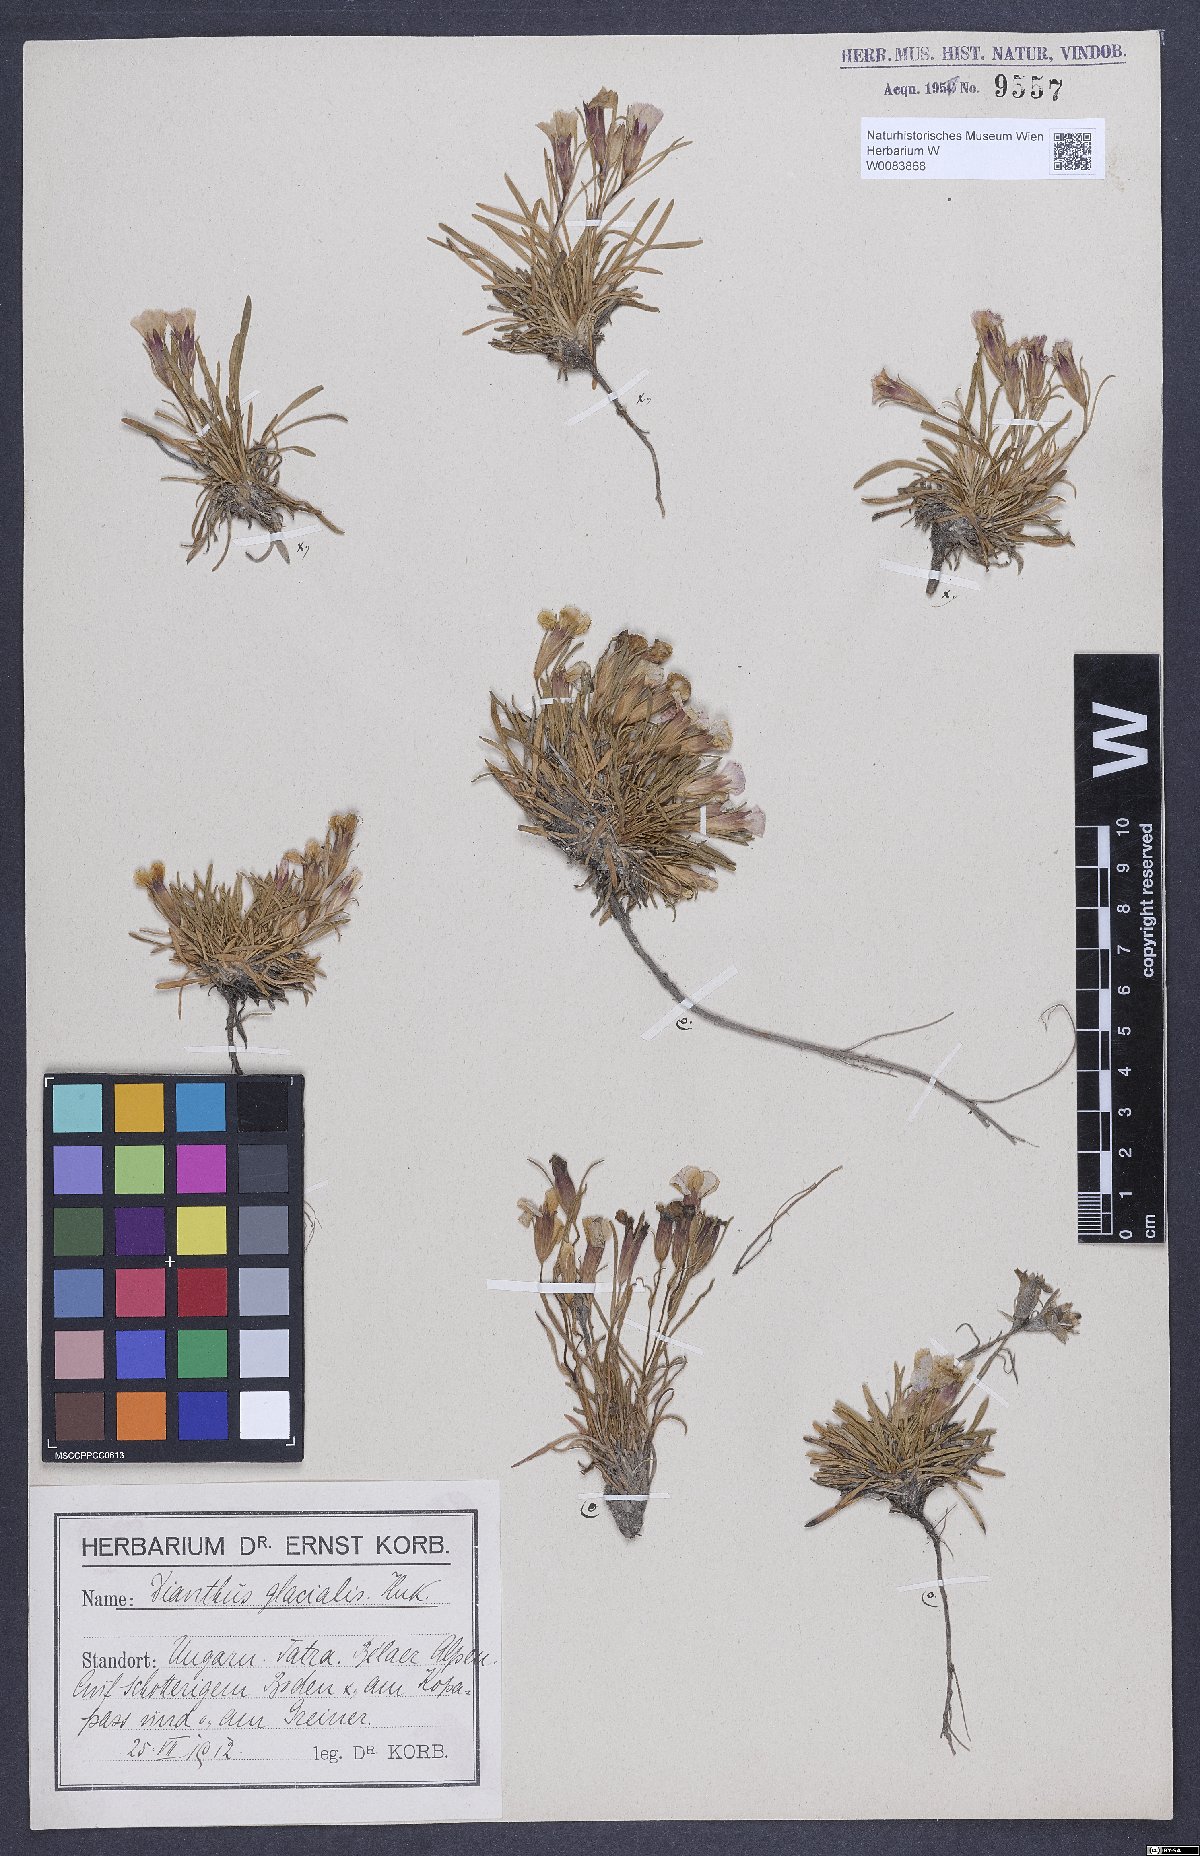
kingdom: Plantae
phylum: Tracheophyta
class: Magnoliopsida
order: Caryophyllales
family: Caryophyllaceae
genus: Dianthus
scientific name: Dianthus glacialis
